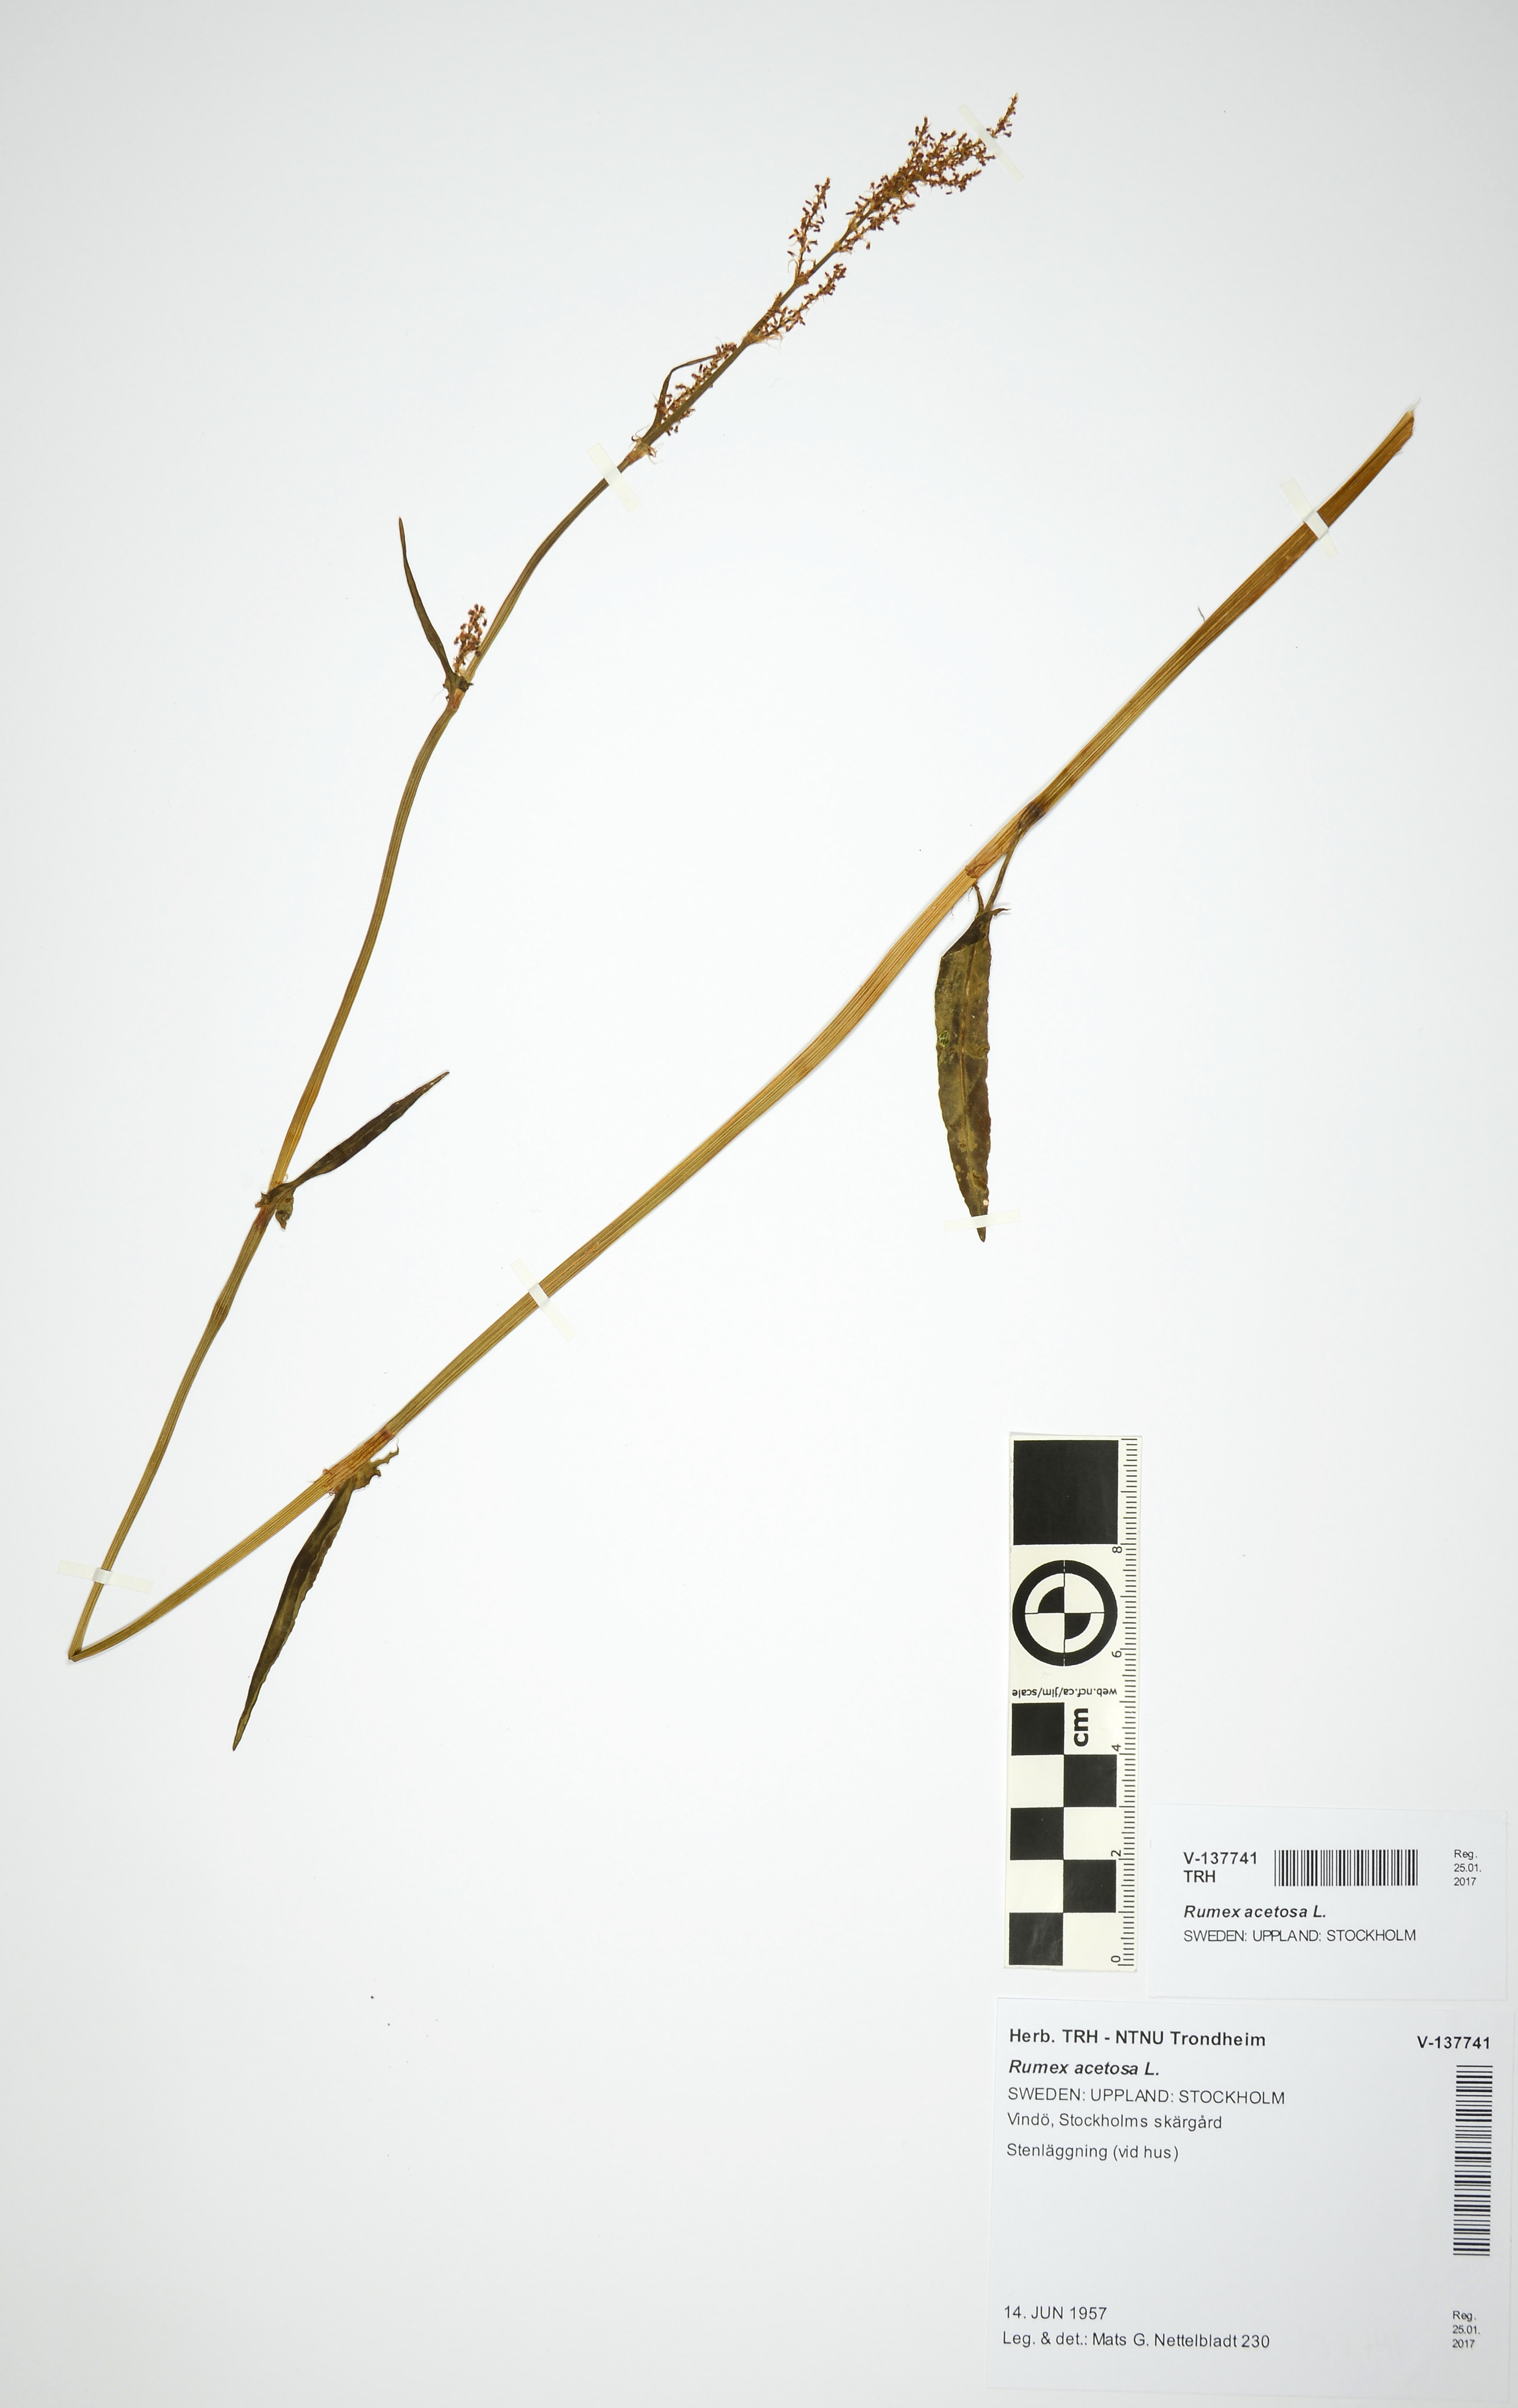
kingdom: Plantae
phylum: Tracheophyta
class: Magnoliopsida
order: Caryophyllales
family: Polygonaceae
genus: Rumex
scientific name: Rumex acetosa
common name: Garden sorrel
